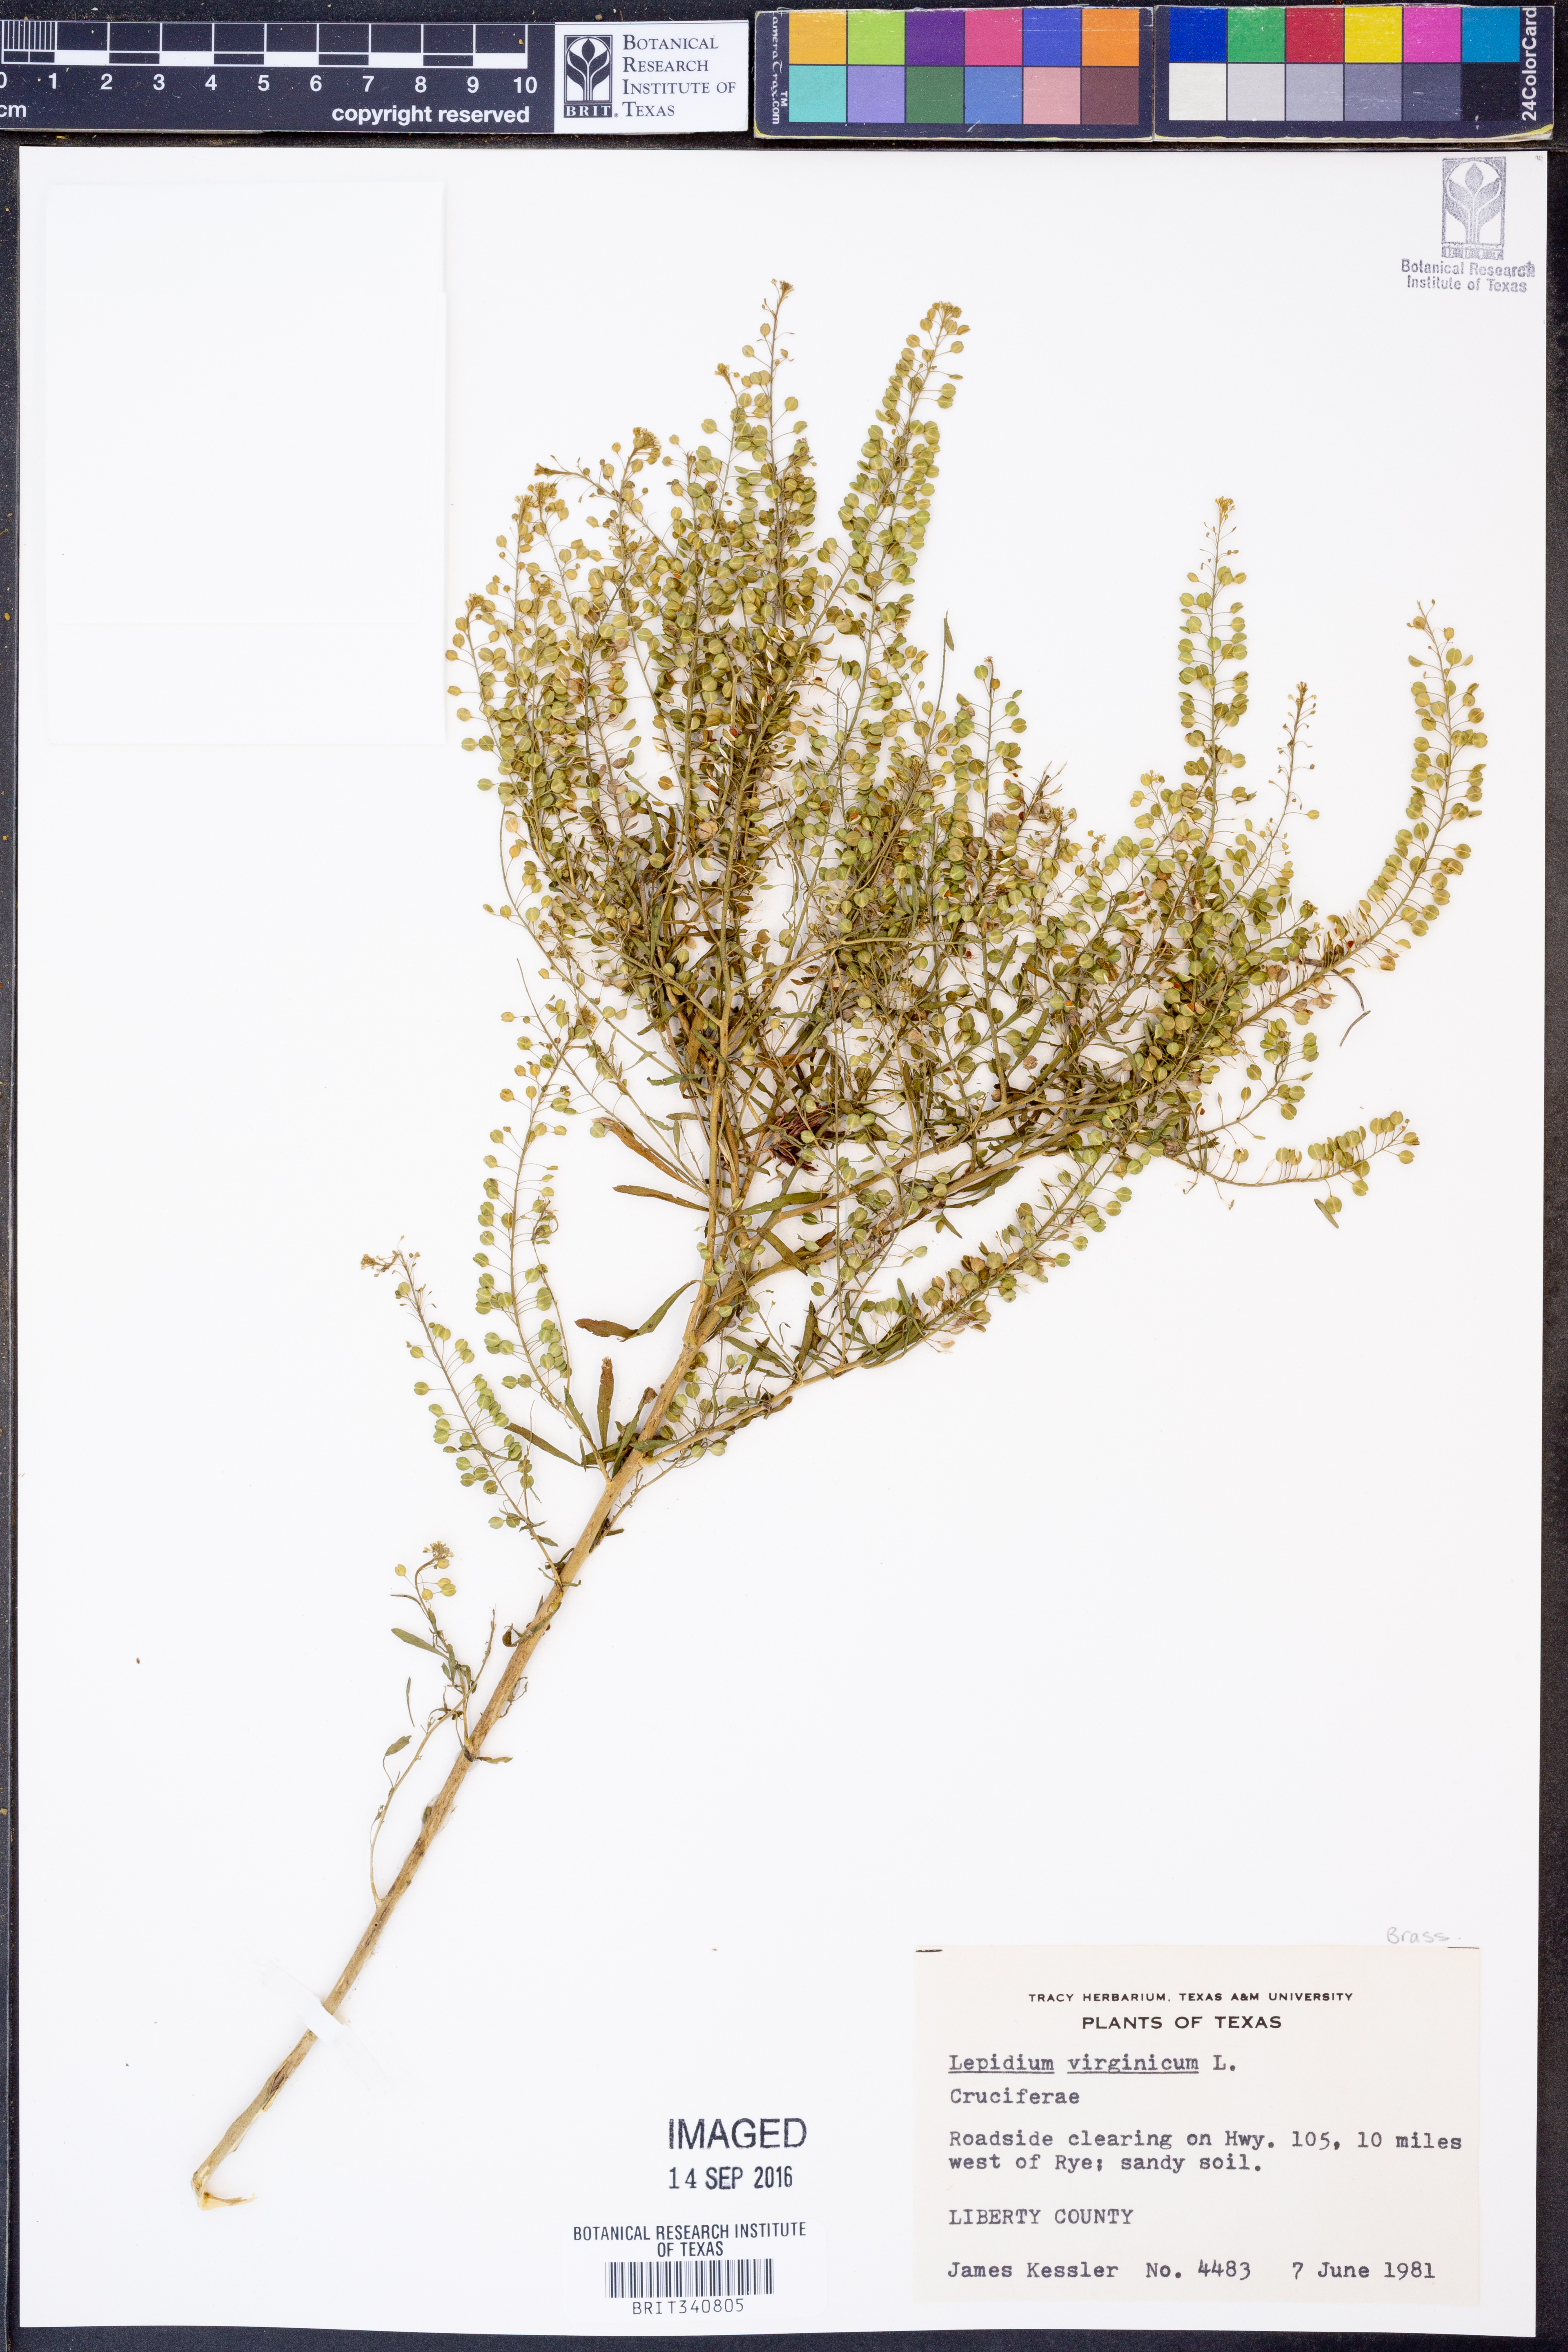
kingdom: Plantae
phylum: Tracheophyta
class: Magnoliopsida
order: Brassicales
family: Brassicaceae
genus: Lepidium
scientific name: Lepidium virginicum
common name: Least pepperwort
